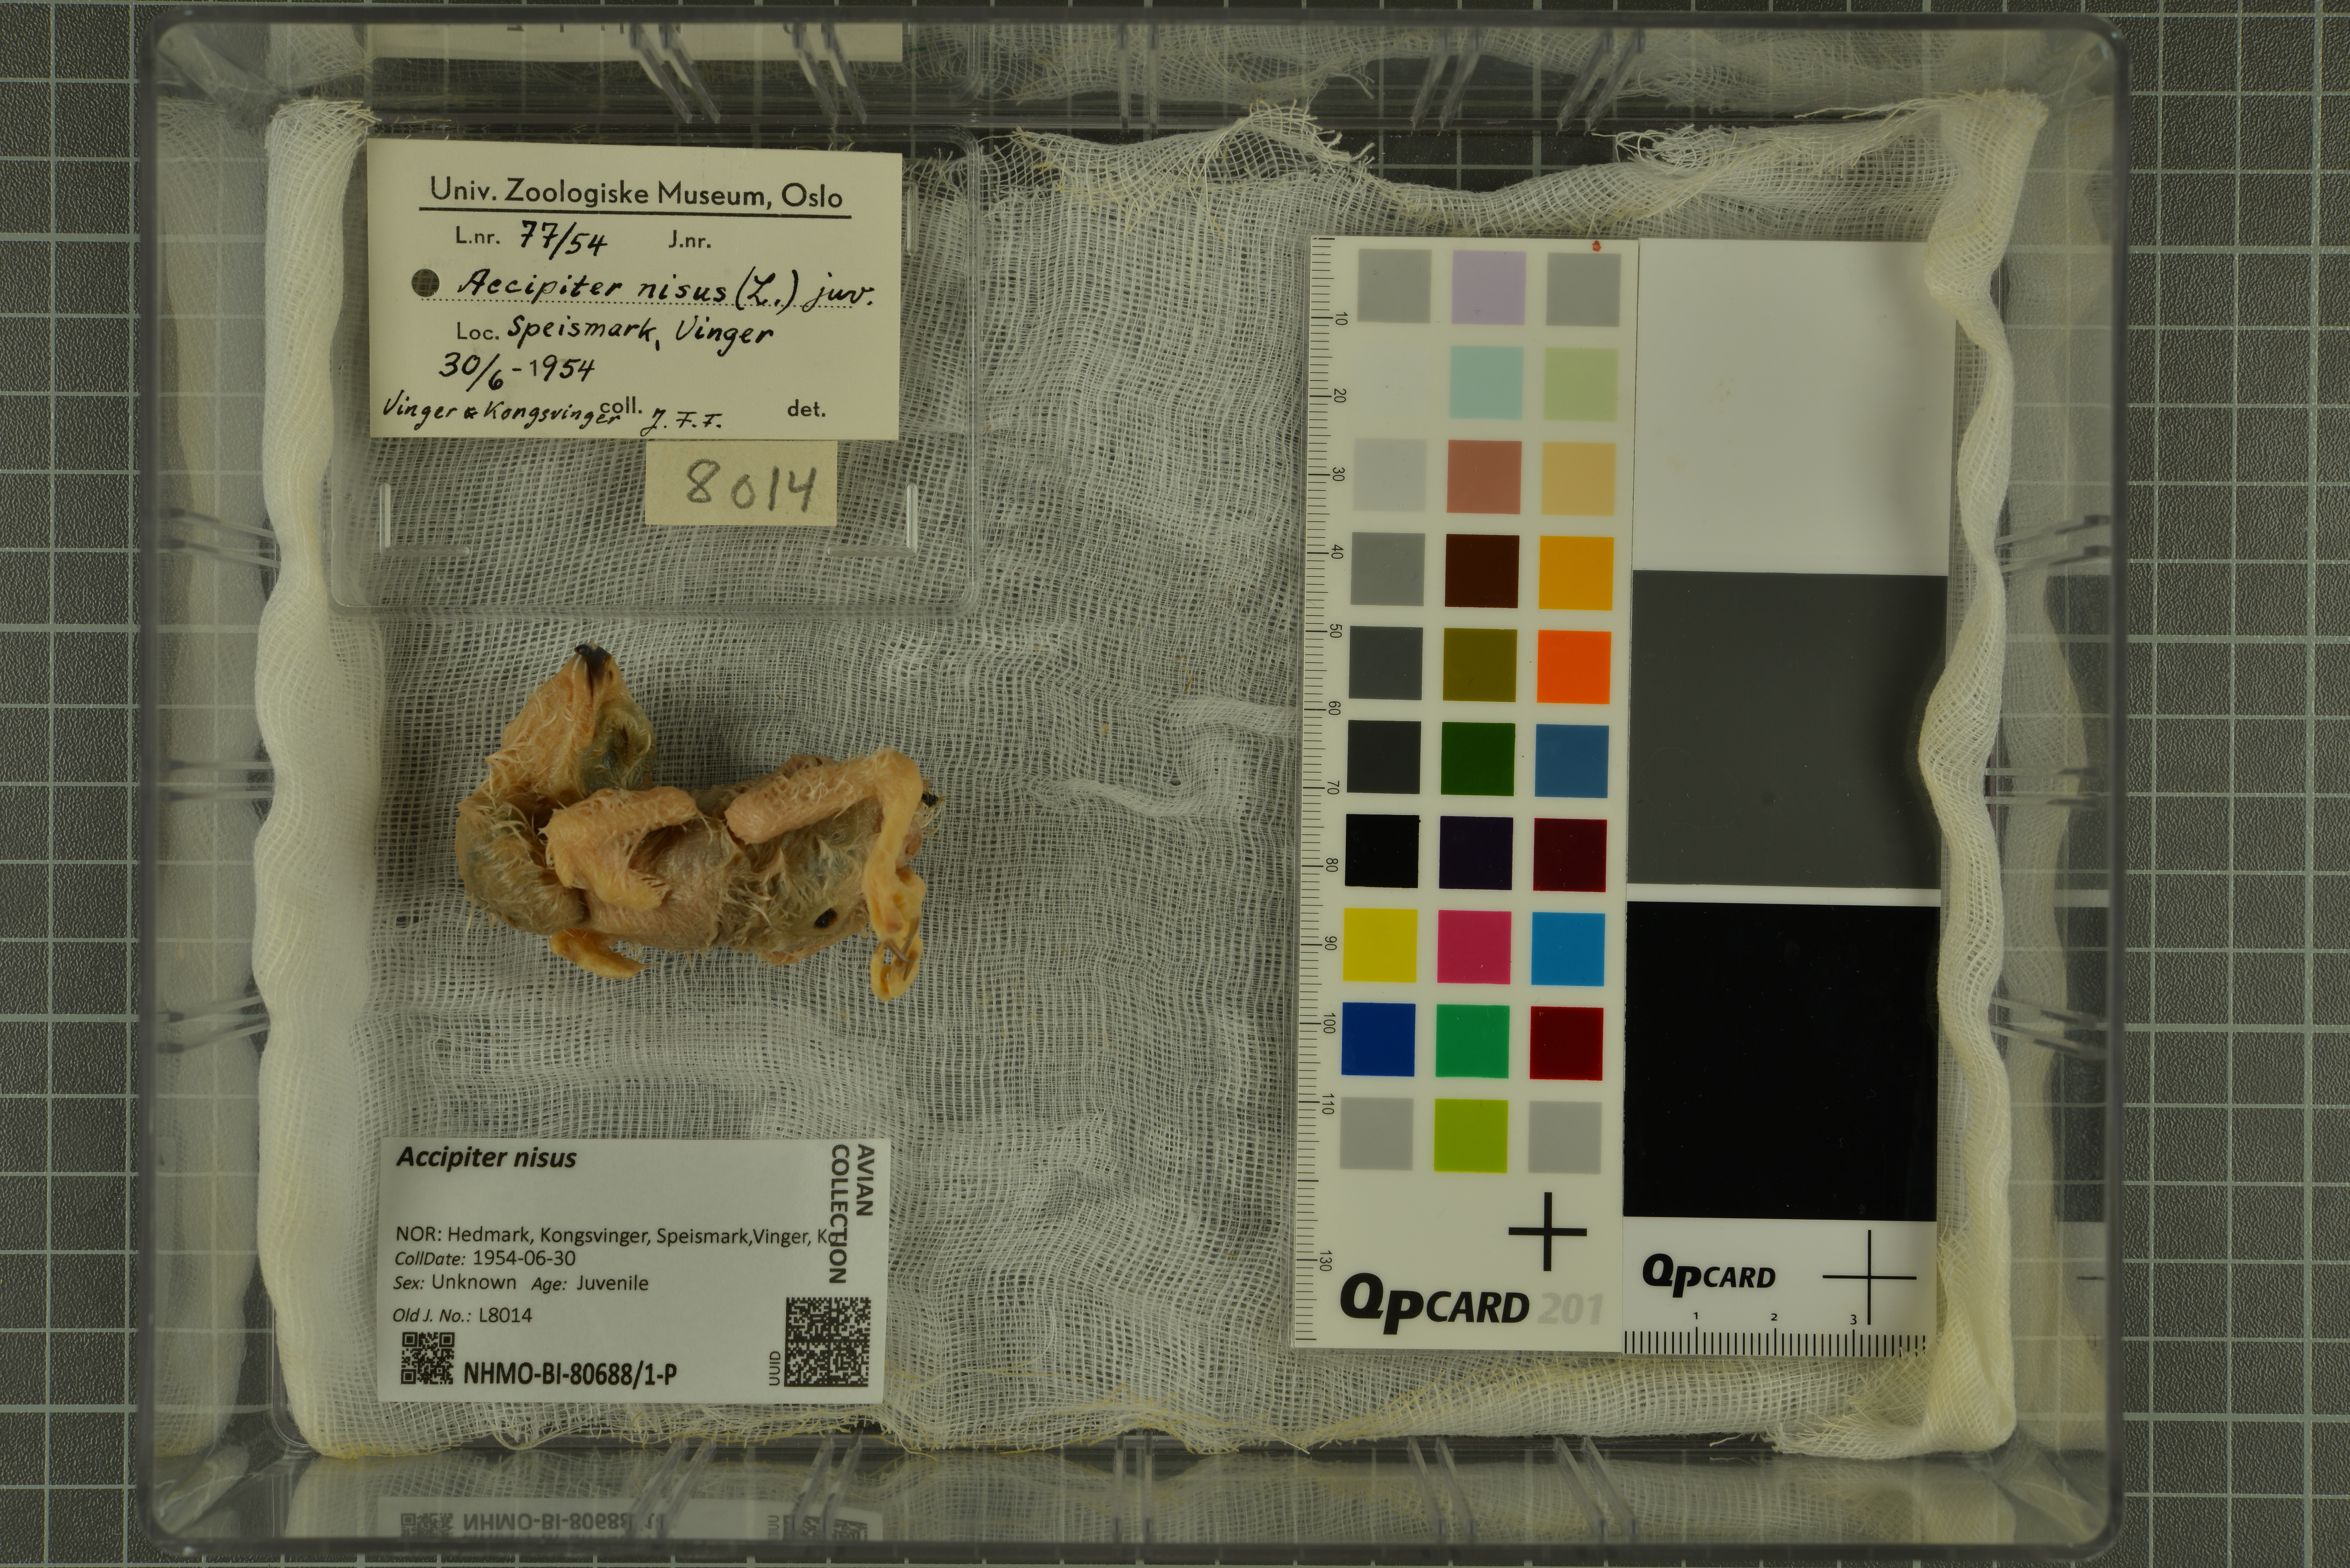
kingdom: Animalia
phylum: Chordata
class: Aves
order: Accipitriformes
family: Accipitridae
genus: Accipiter
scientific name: Accipiter nisus
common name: Eurasian sparrowhawk
